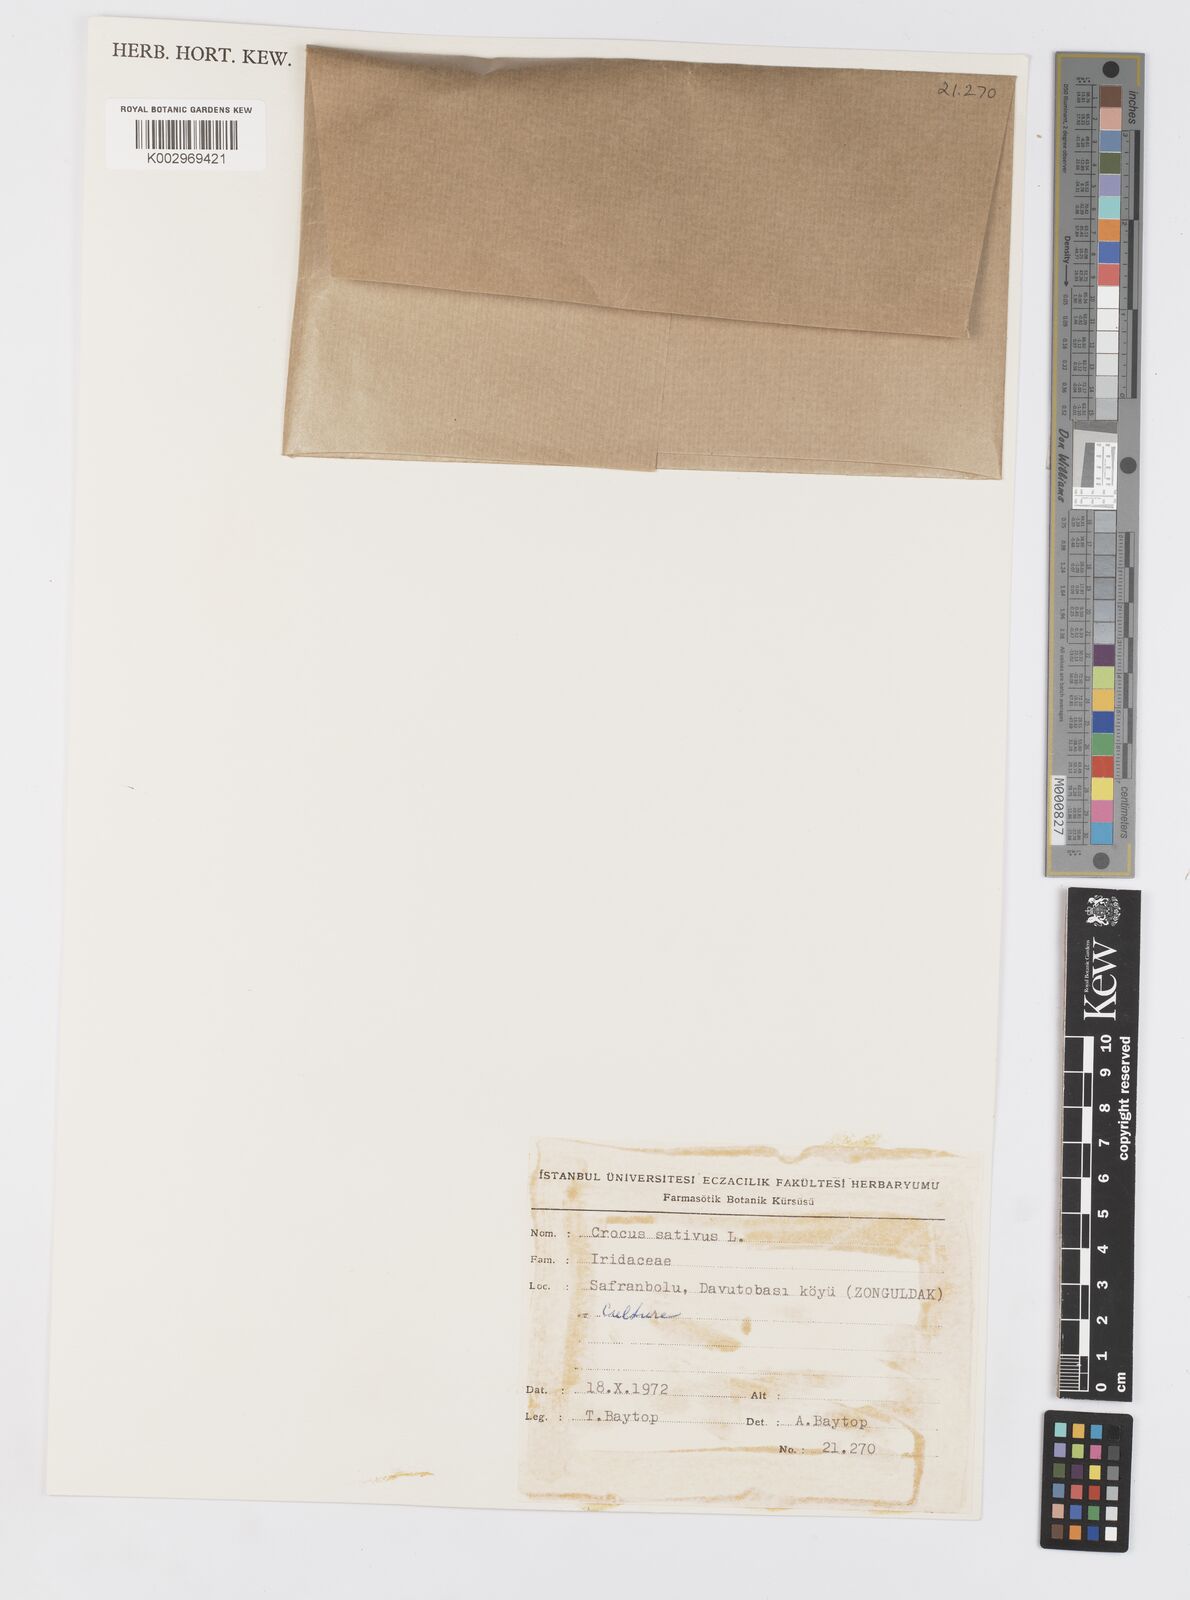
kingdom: Plantae
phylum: Tracheophyta
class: Liliopsida
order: Asparagales
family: Iridaceae
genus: Crocus
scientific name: Crocus sativus
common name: Saffron crocus
